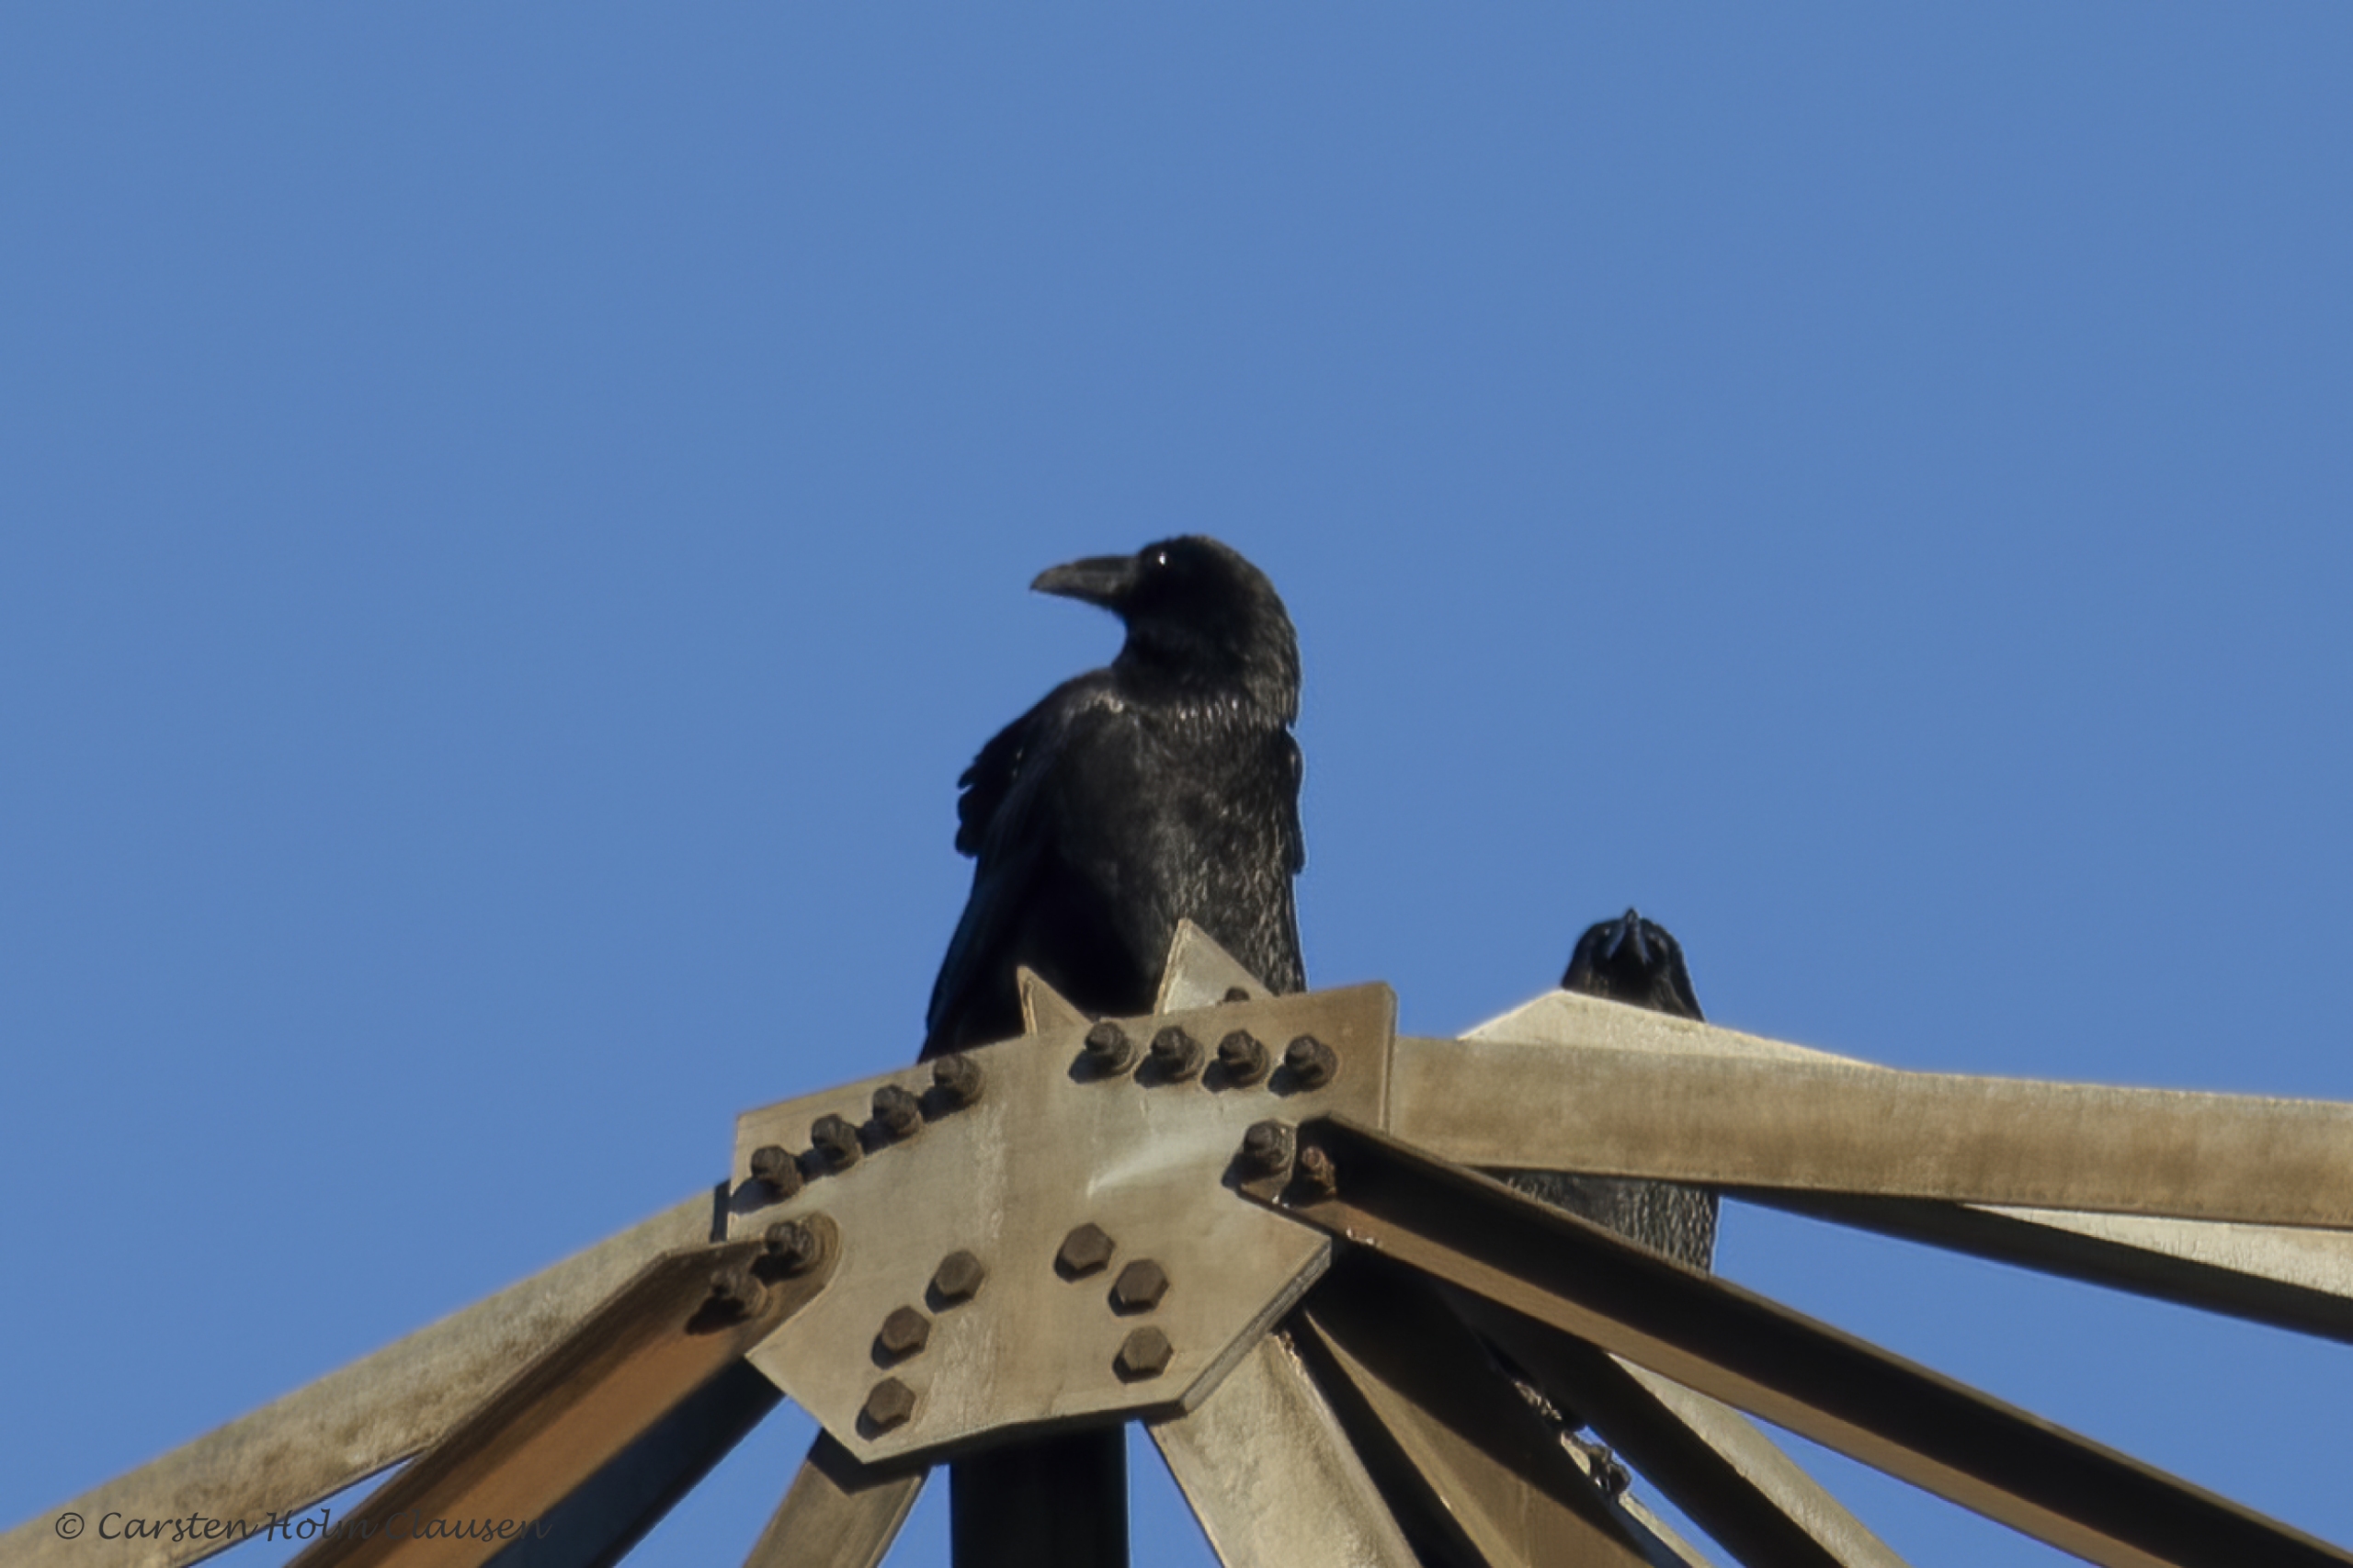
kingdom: Animalia
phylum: Chordata
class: Aves
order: Passeriformes
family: Corvidae
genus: Corvus
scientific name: Corvus corax
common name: Ravn
